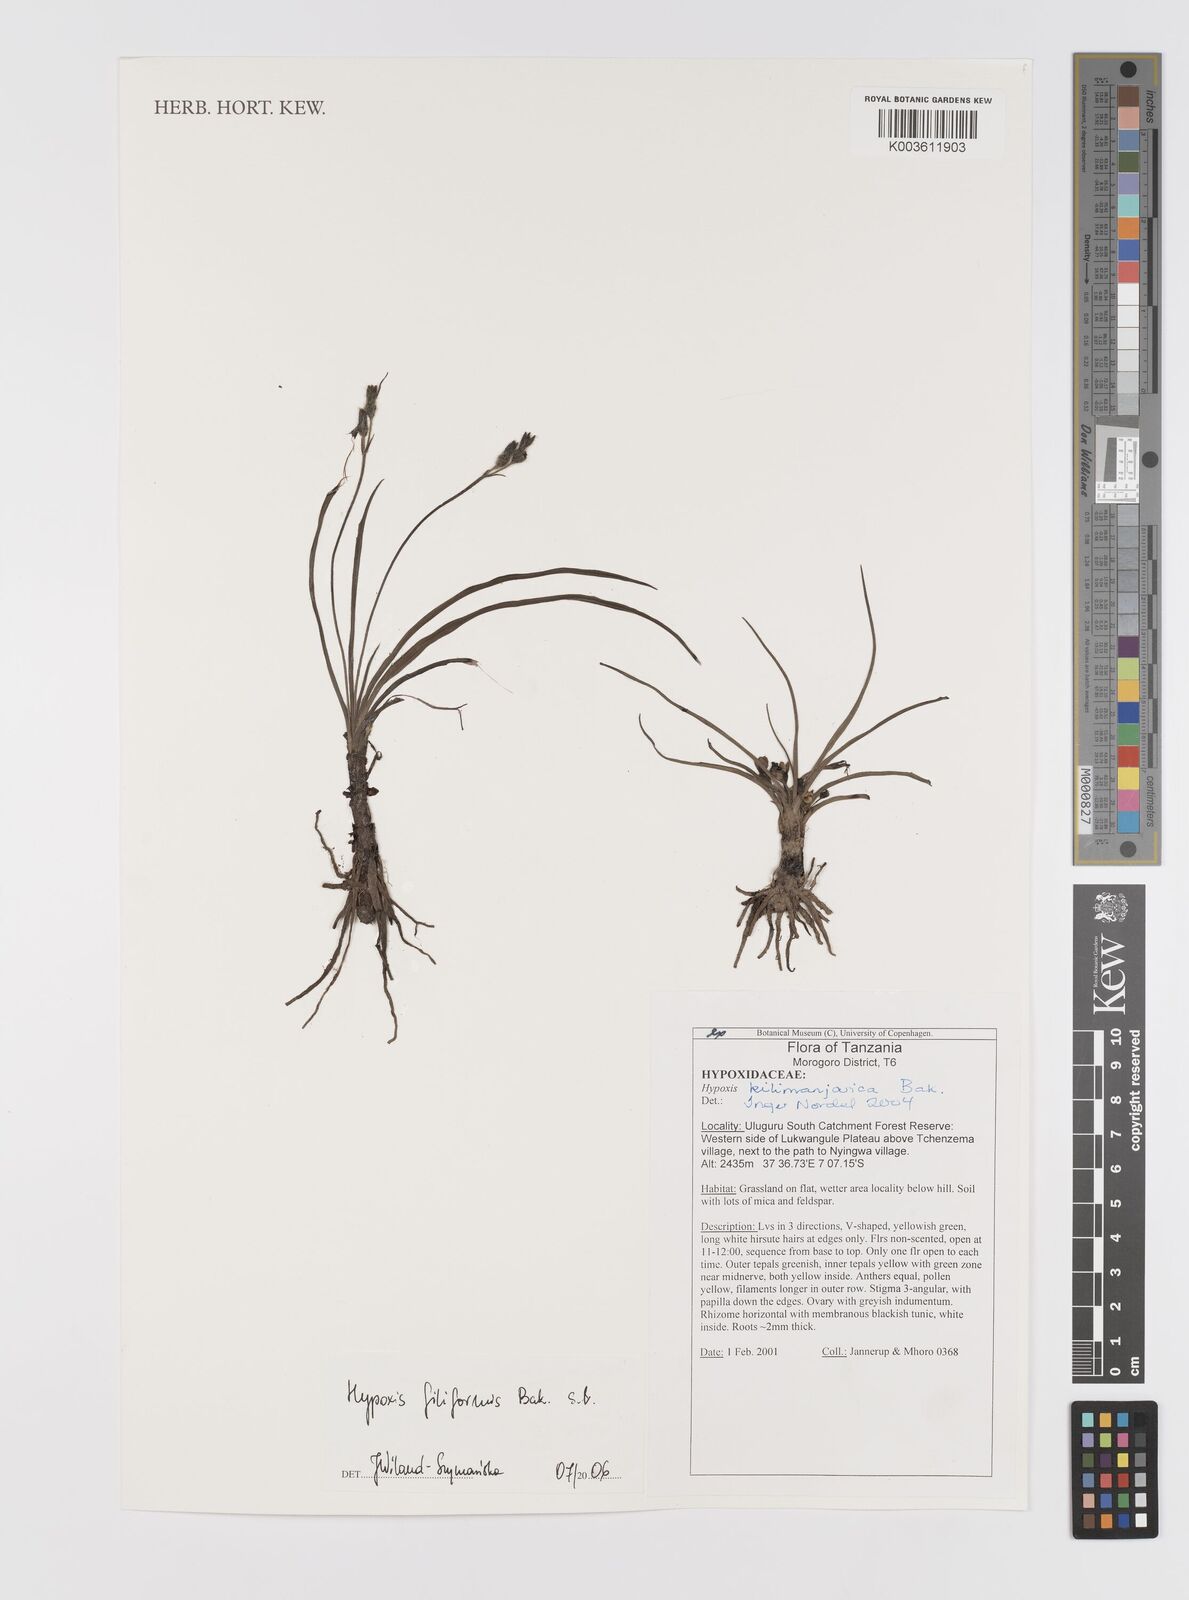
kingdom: Plantae
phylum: Tracheophyta
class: Liliopsida
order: Asparagales
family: Hypoxidaceae
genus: Hypoxis
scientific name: Hypoxis filiformis
